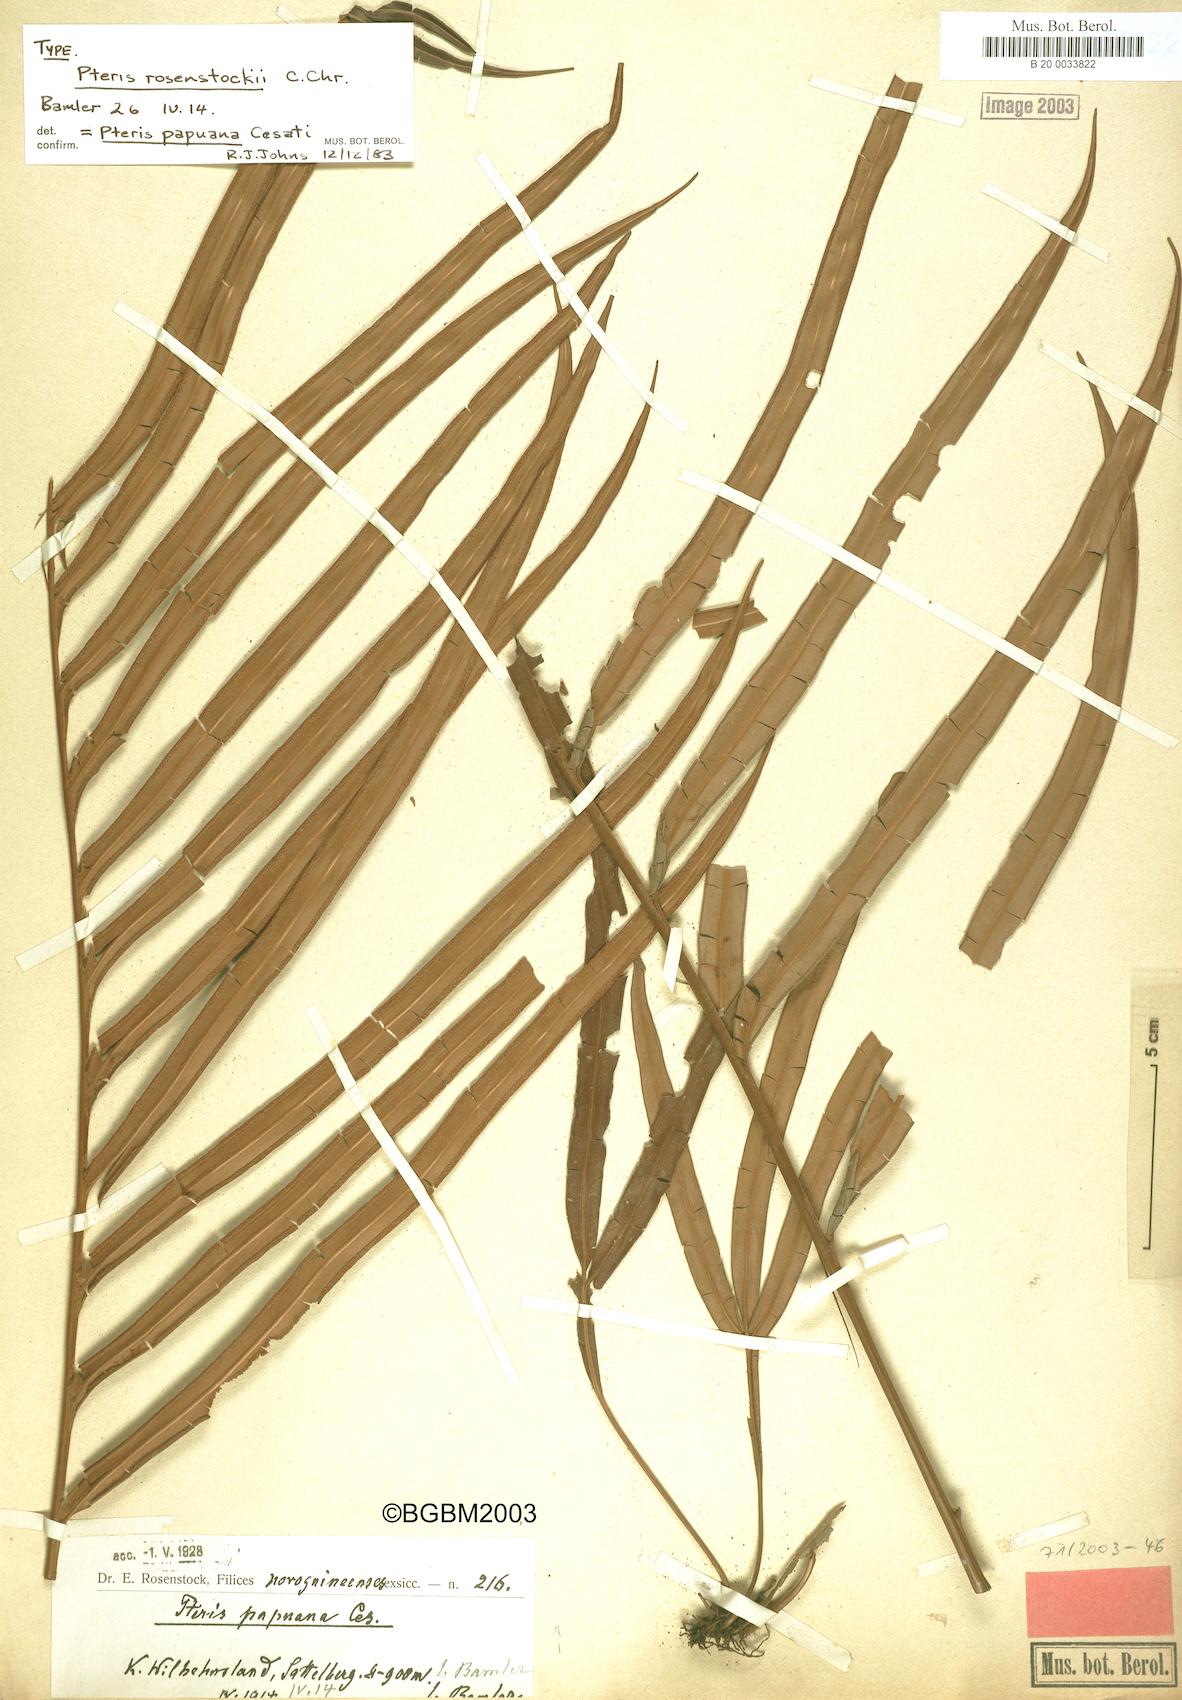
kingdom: Plantae
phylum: Tracheophyta
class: Polypodiopsida
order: Polypodiales
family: Pteridaceae
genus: Pteris
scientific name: Pteris papuana
